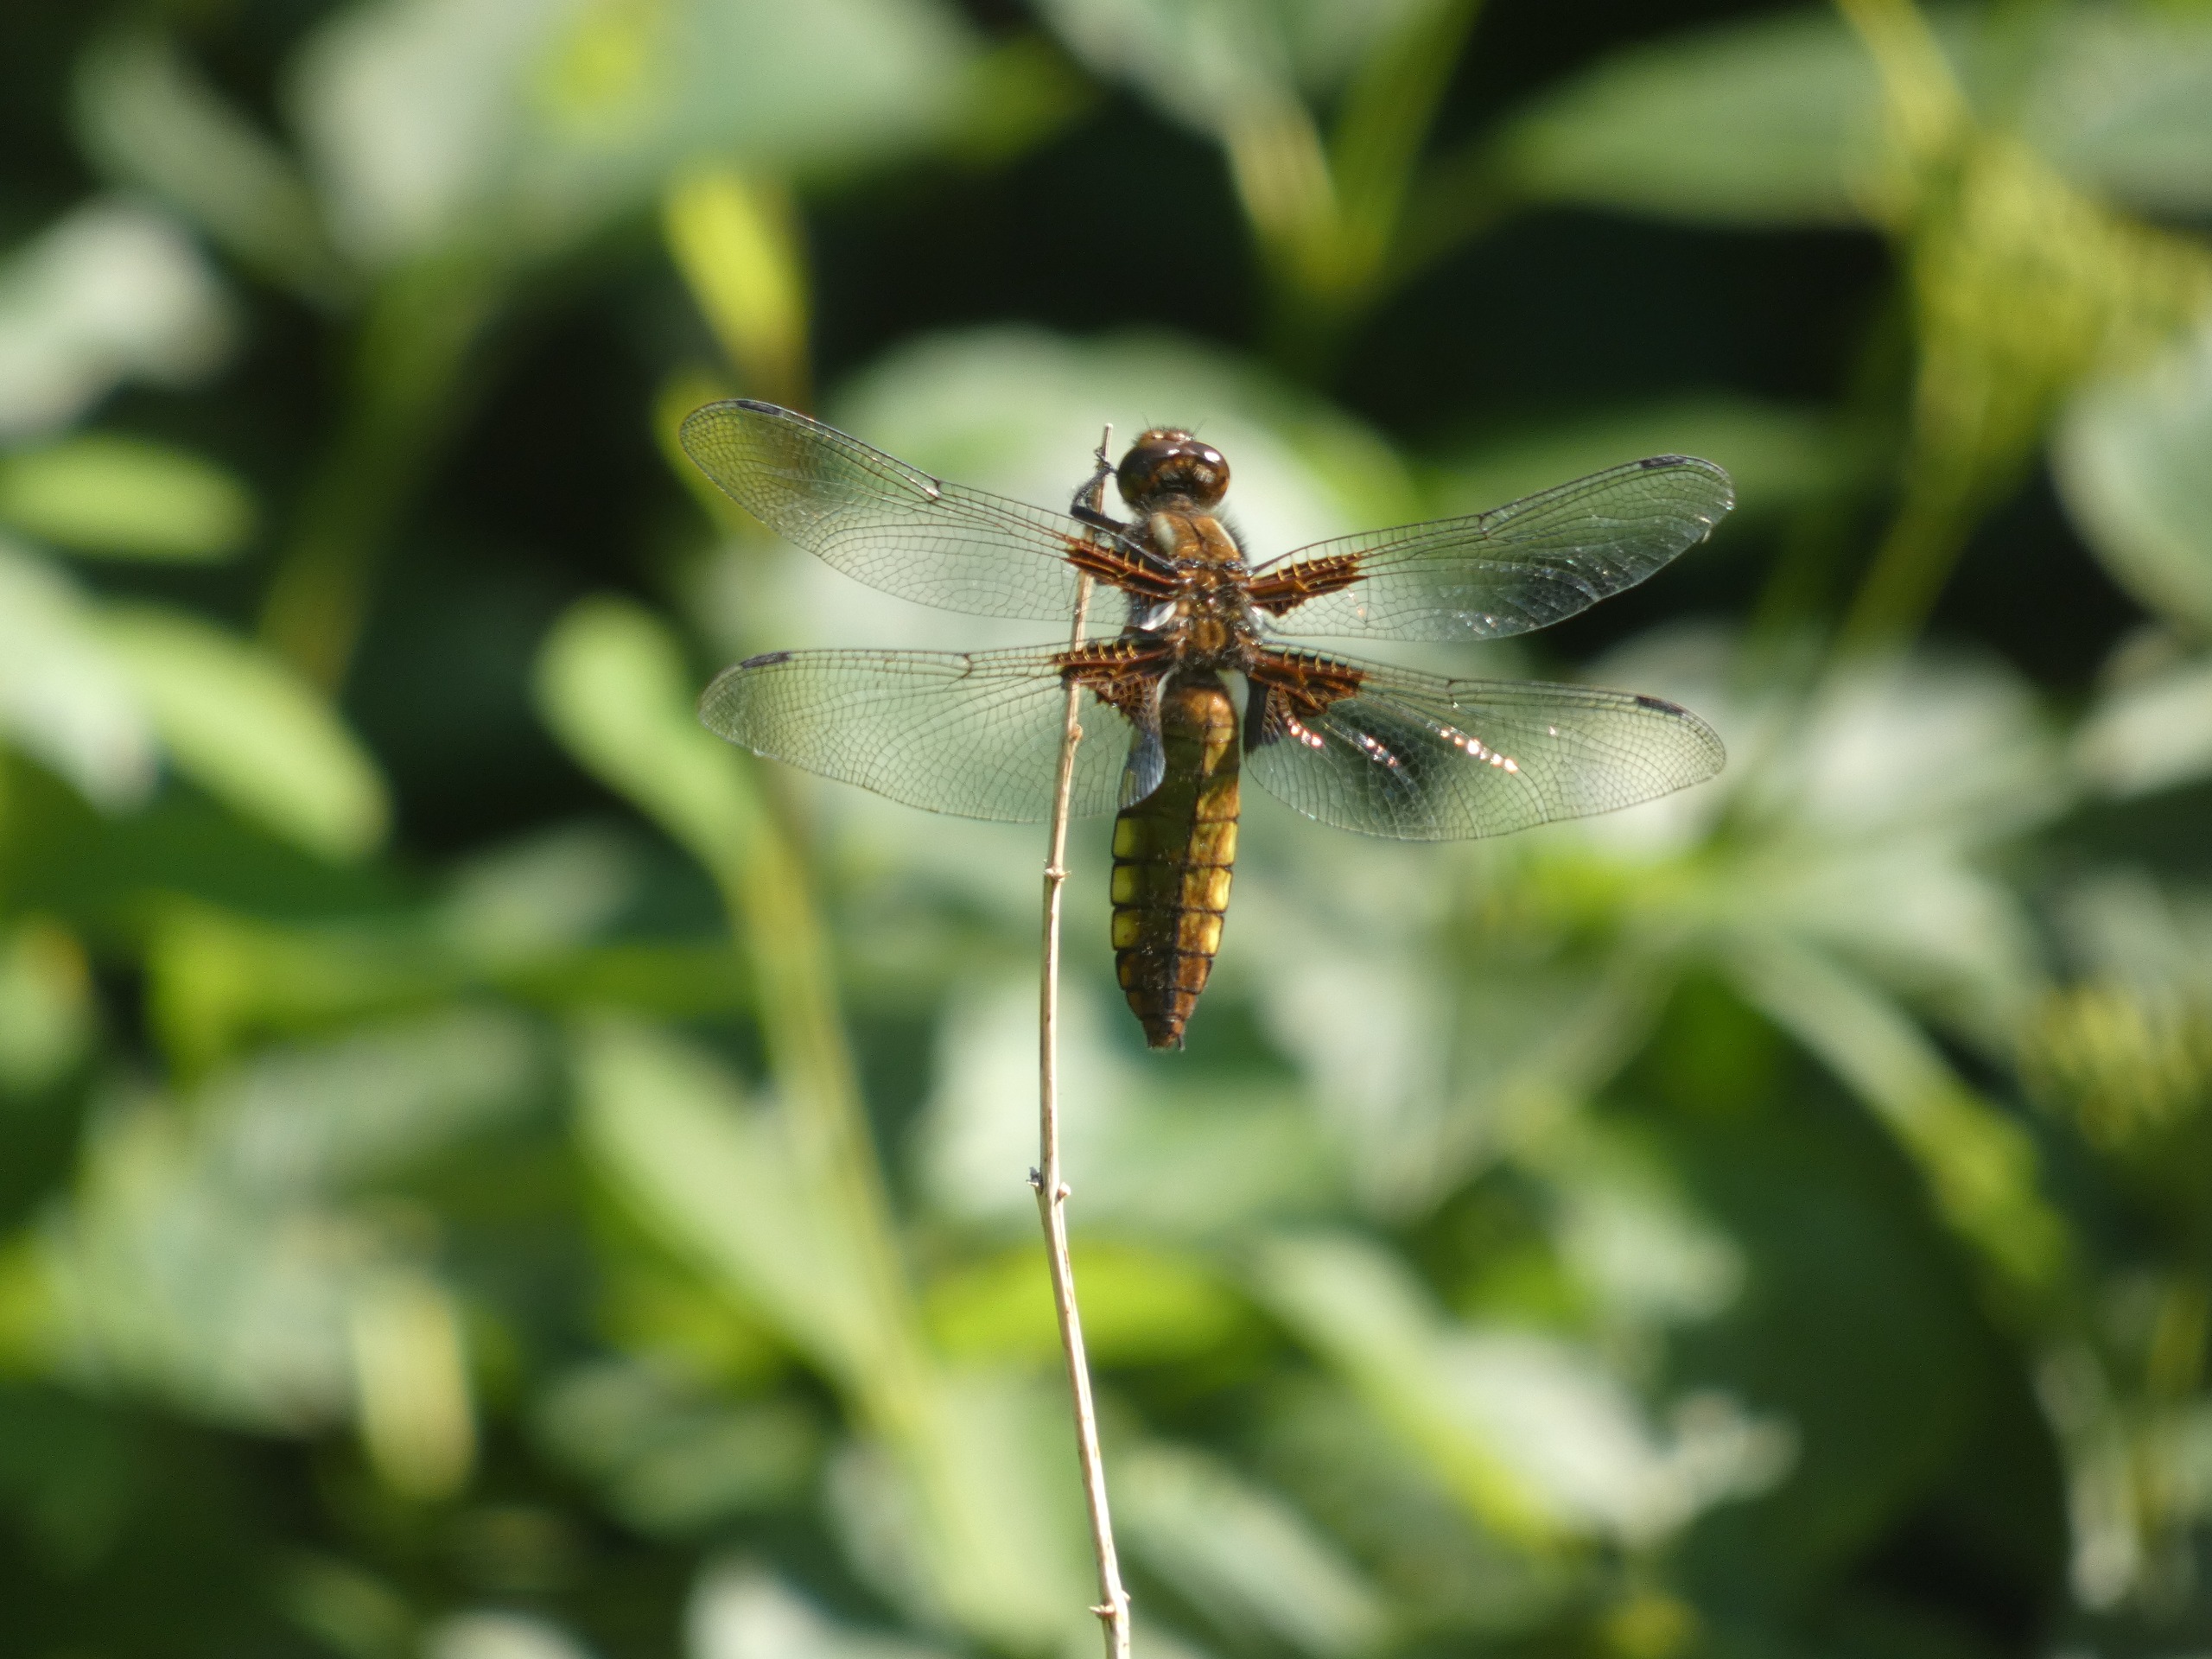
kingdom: Animalia
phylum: Arthropoda
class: Insecta
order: Odonata
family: Libellulidae
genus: Libellula
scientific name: Libellula depressa
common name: Blå libel
